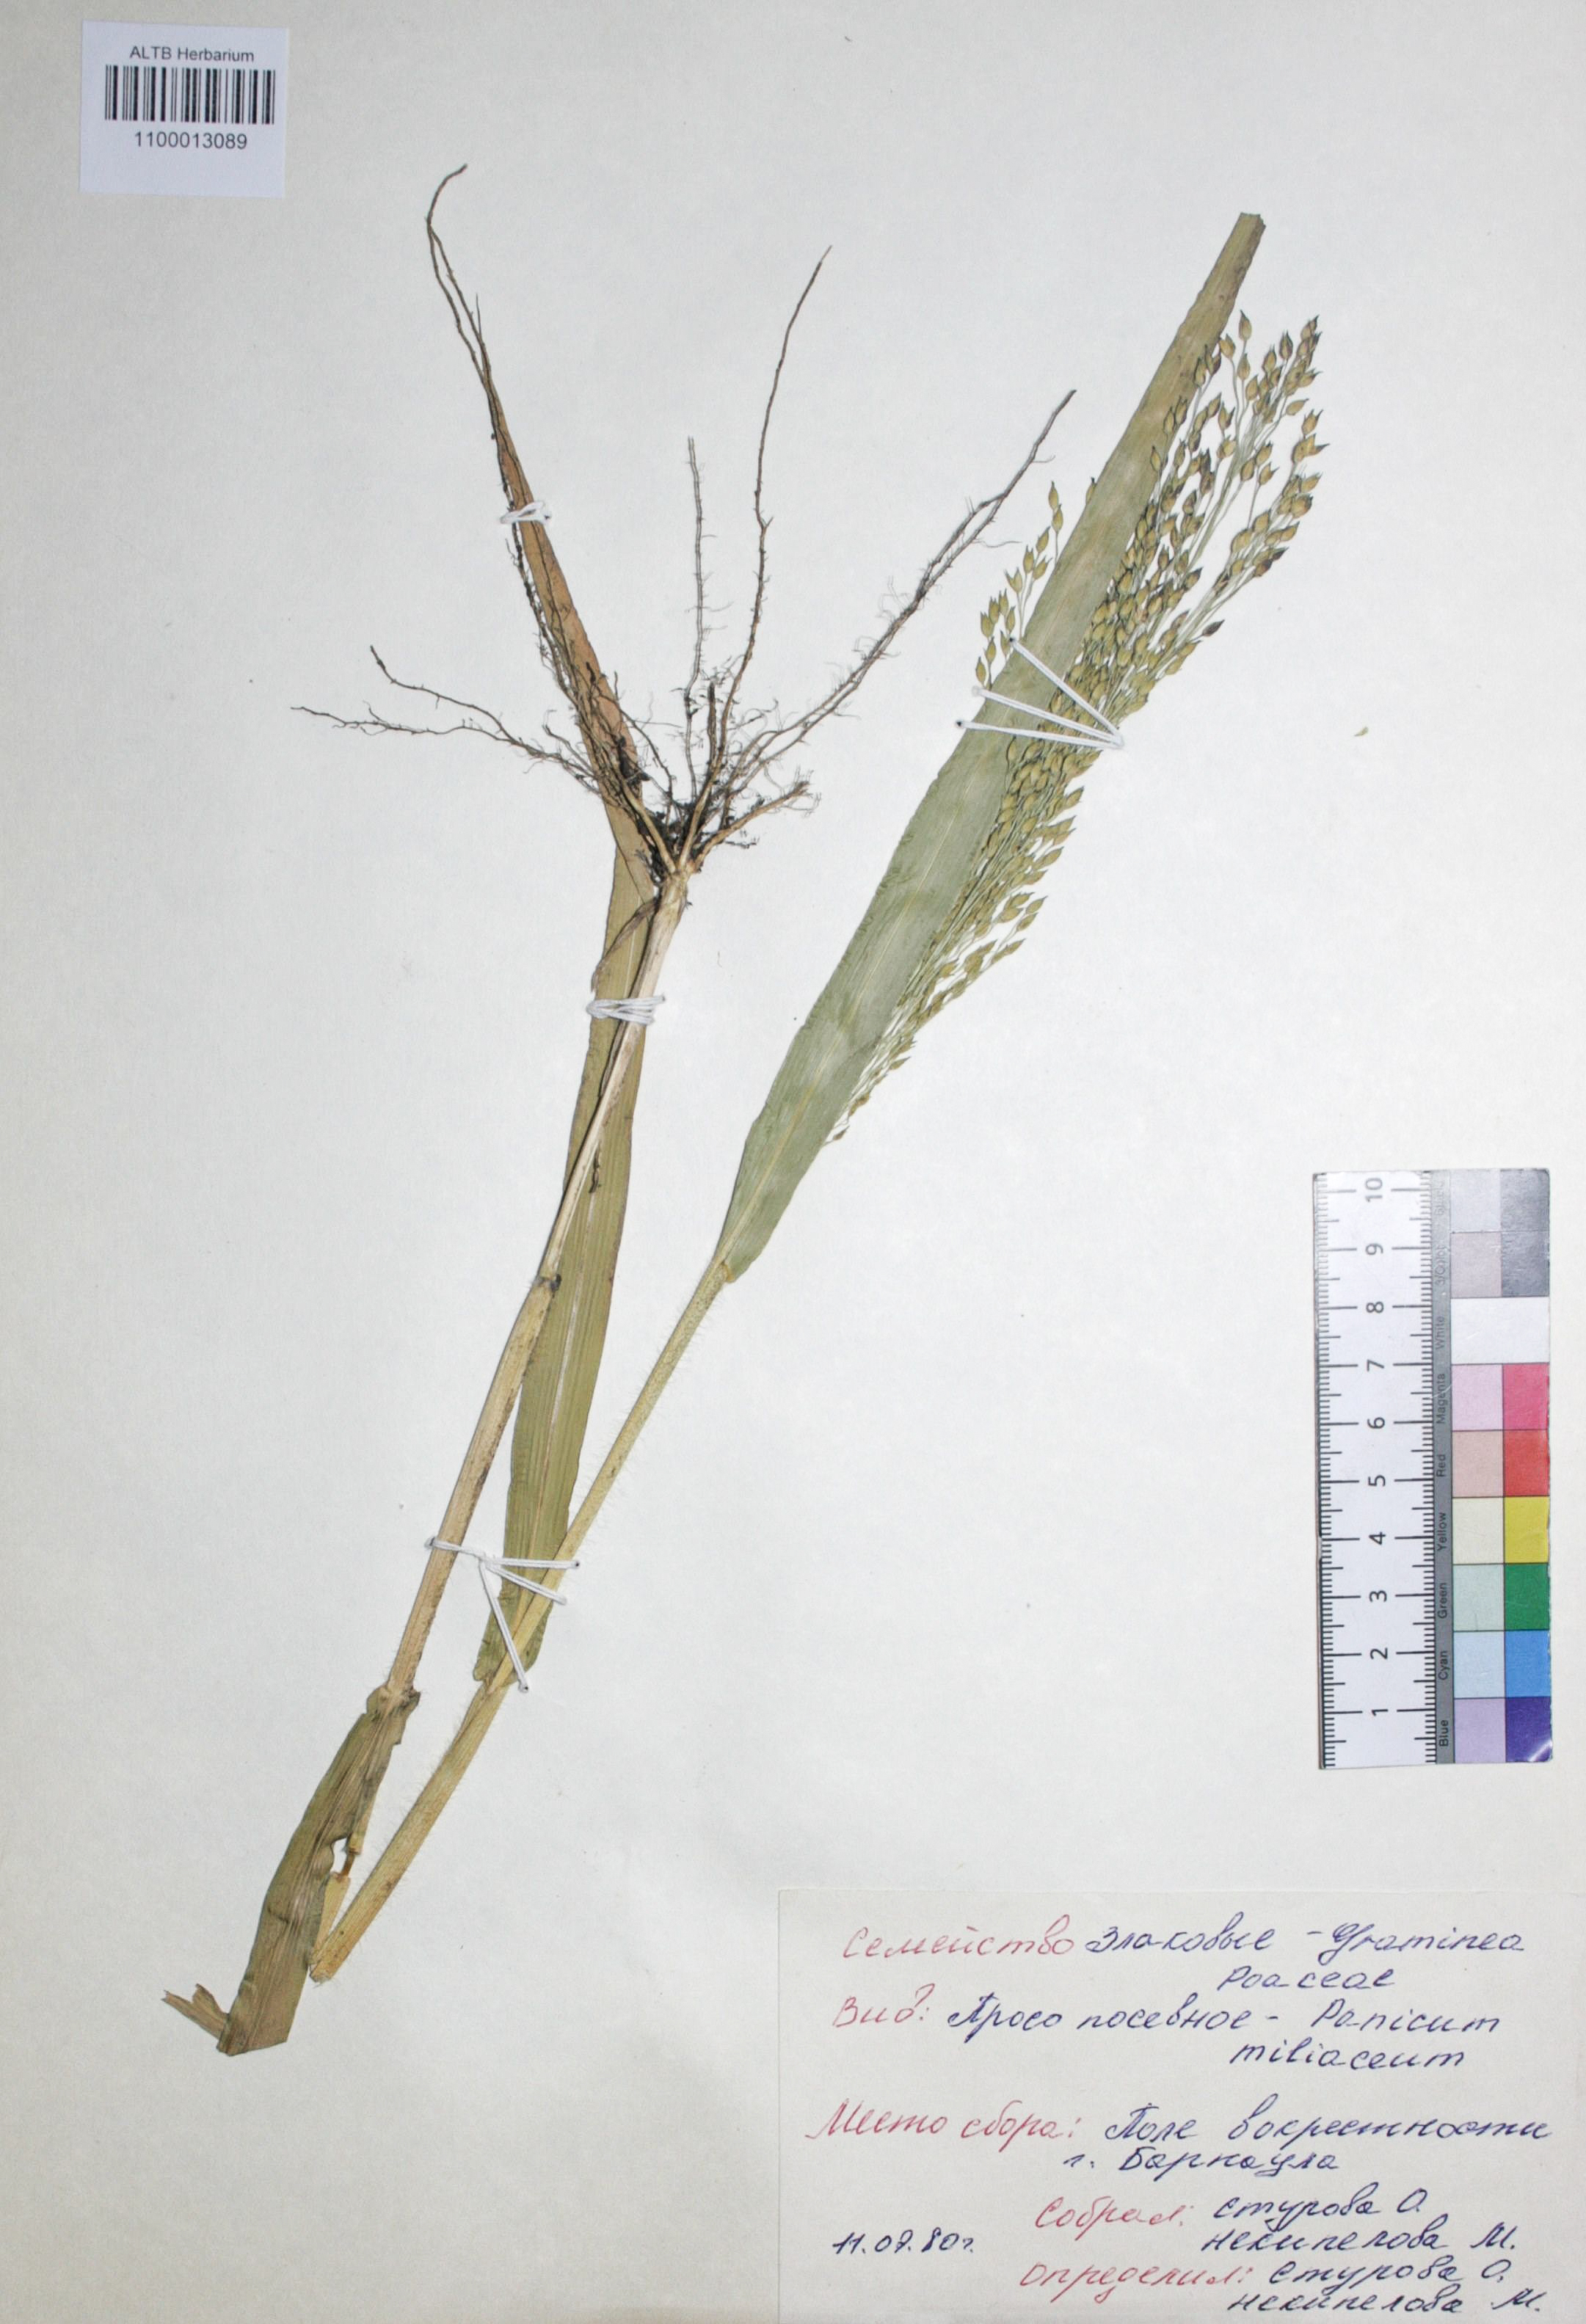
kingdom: Plantae
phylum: Tracheophyta
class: Liliopsida
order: Poales
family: Poaceae
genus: Panicum
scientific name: Panicum miliaceum
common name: Common millet
